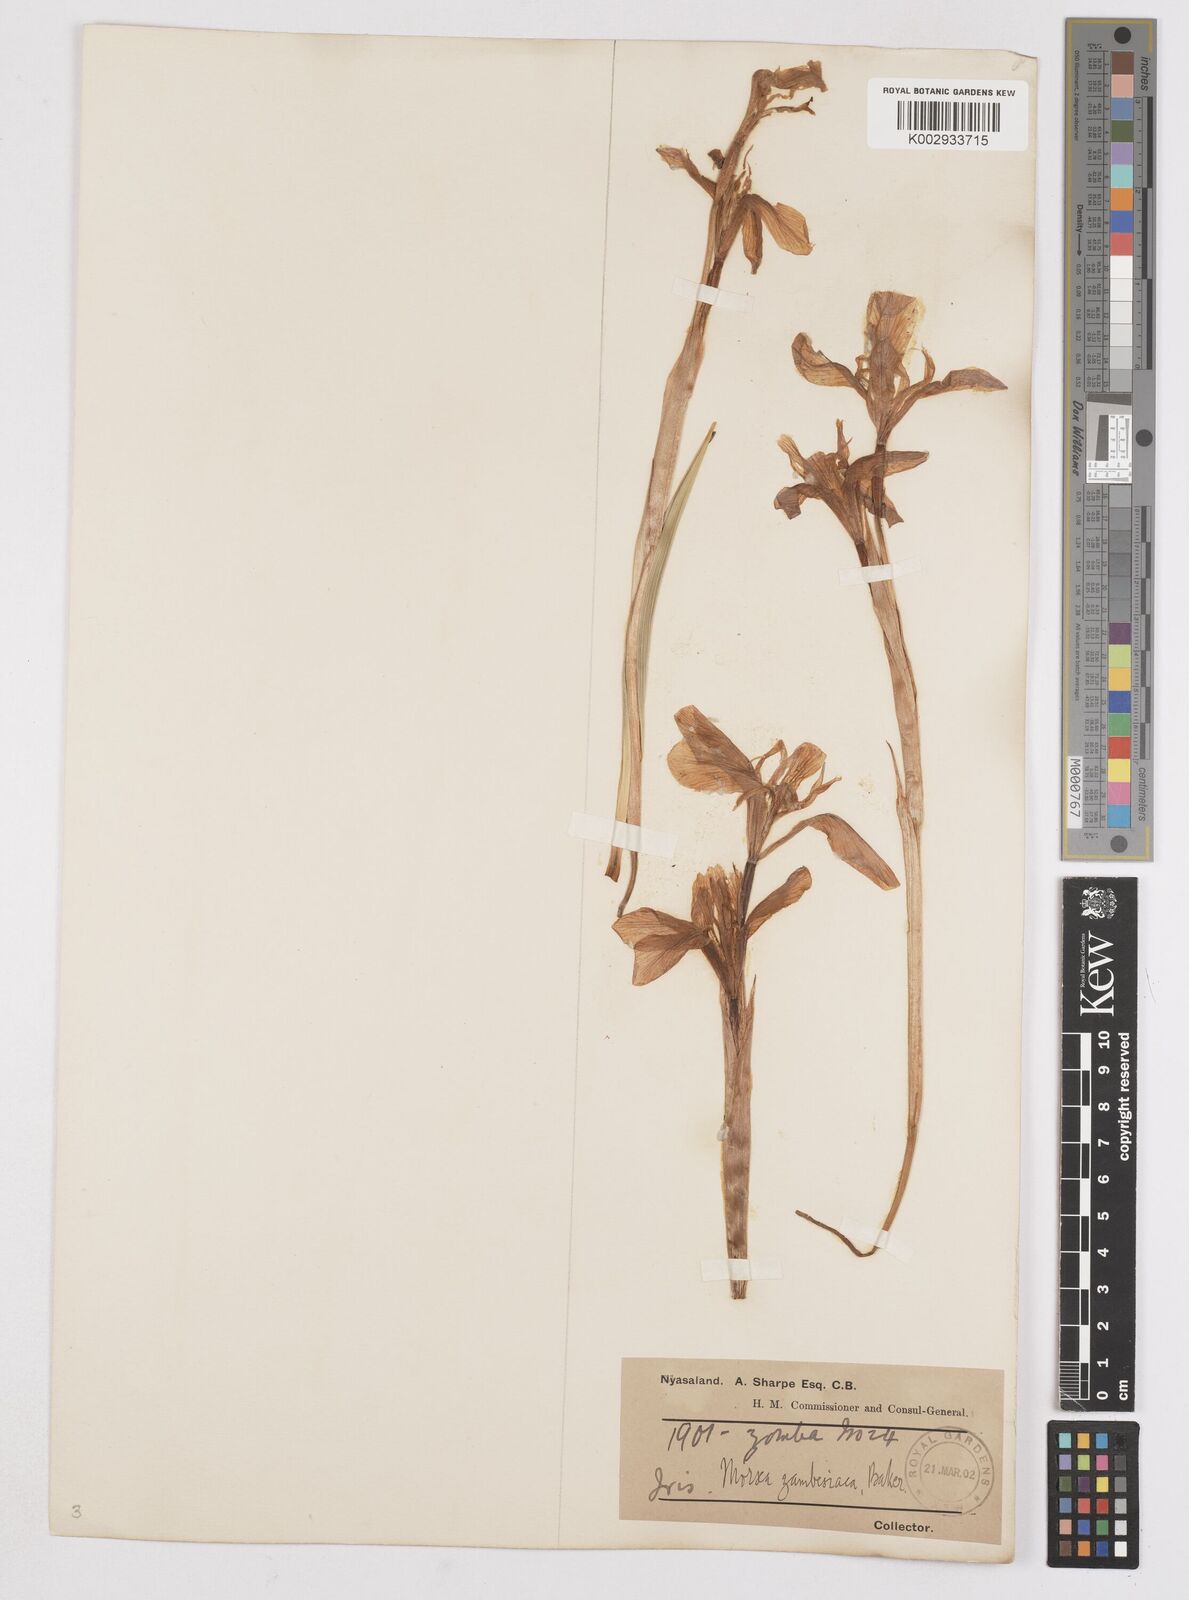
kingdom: Plantae
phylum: Tracheophyta
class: Liliopsida
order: Asparagales
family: Iridaceae
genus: Moraea
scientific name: Moraea schimperi
